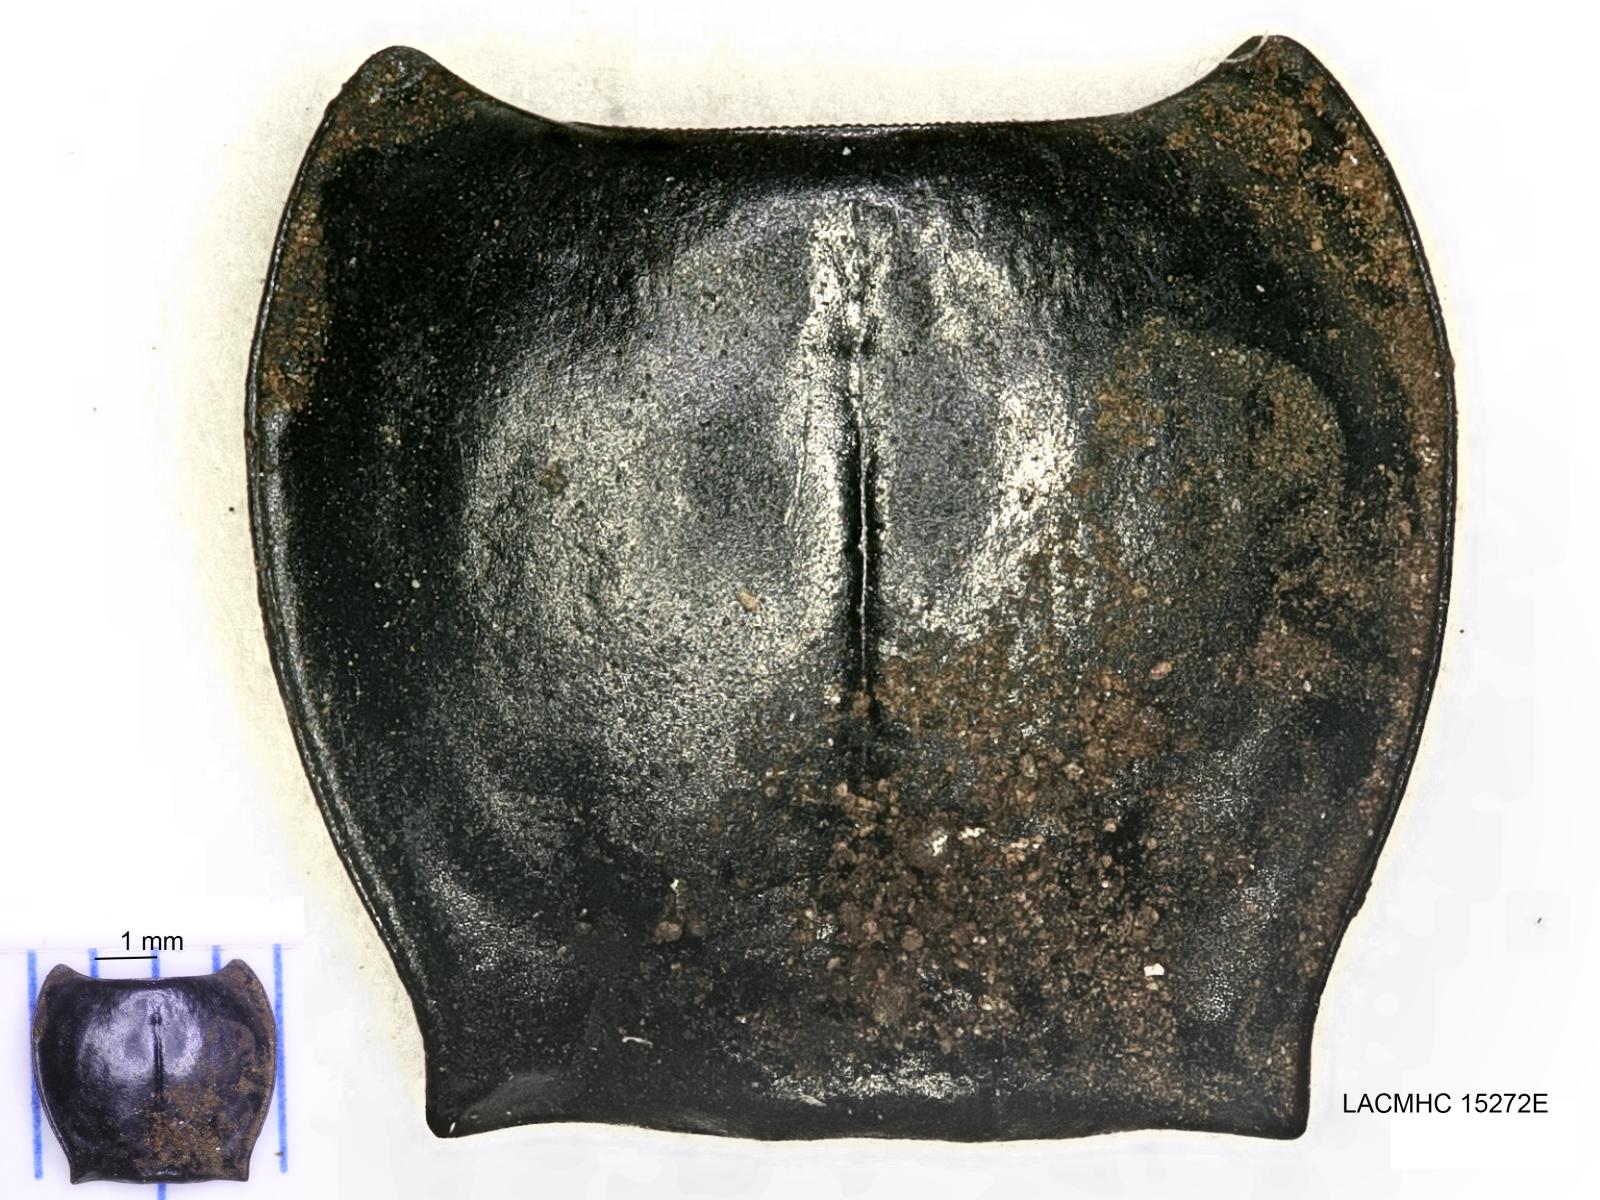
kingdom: Animalia
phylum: Arthropoda
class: Insecta
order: Coleoptera
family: Carabidae
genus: Pterostichus
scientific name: Pterostichus illustris
